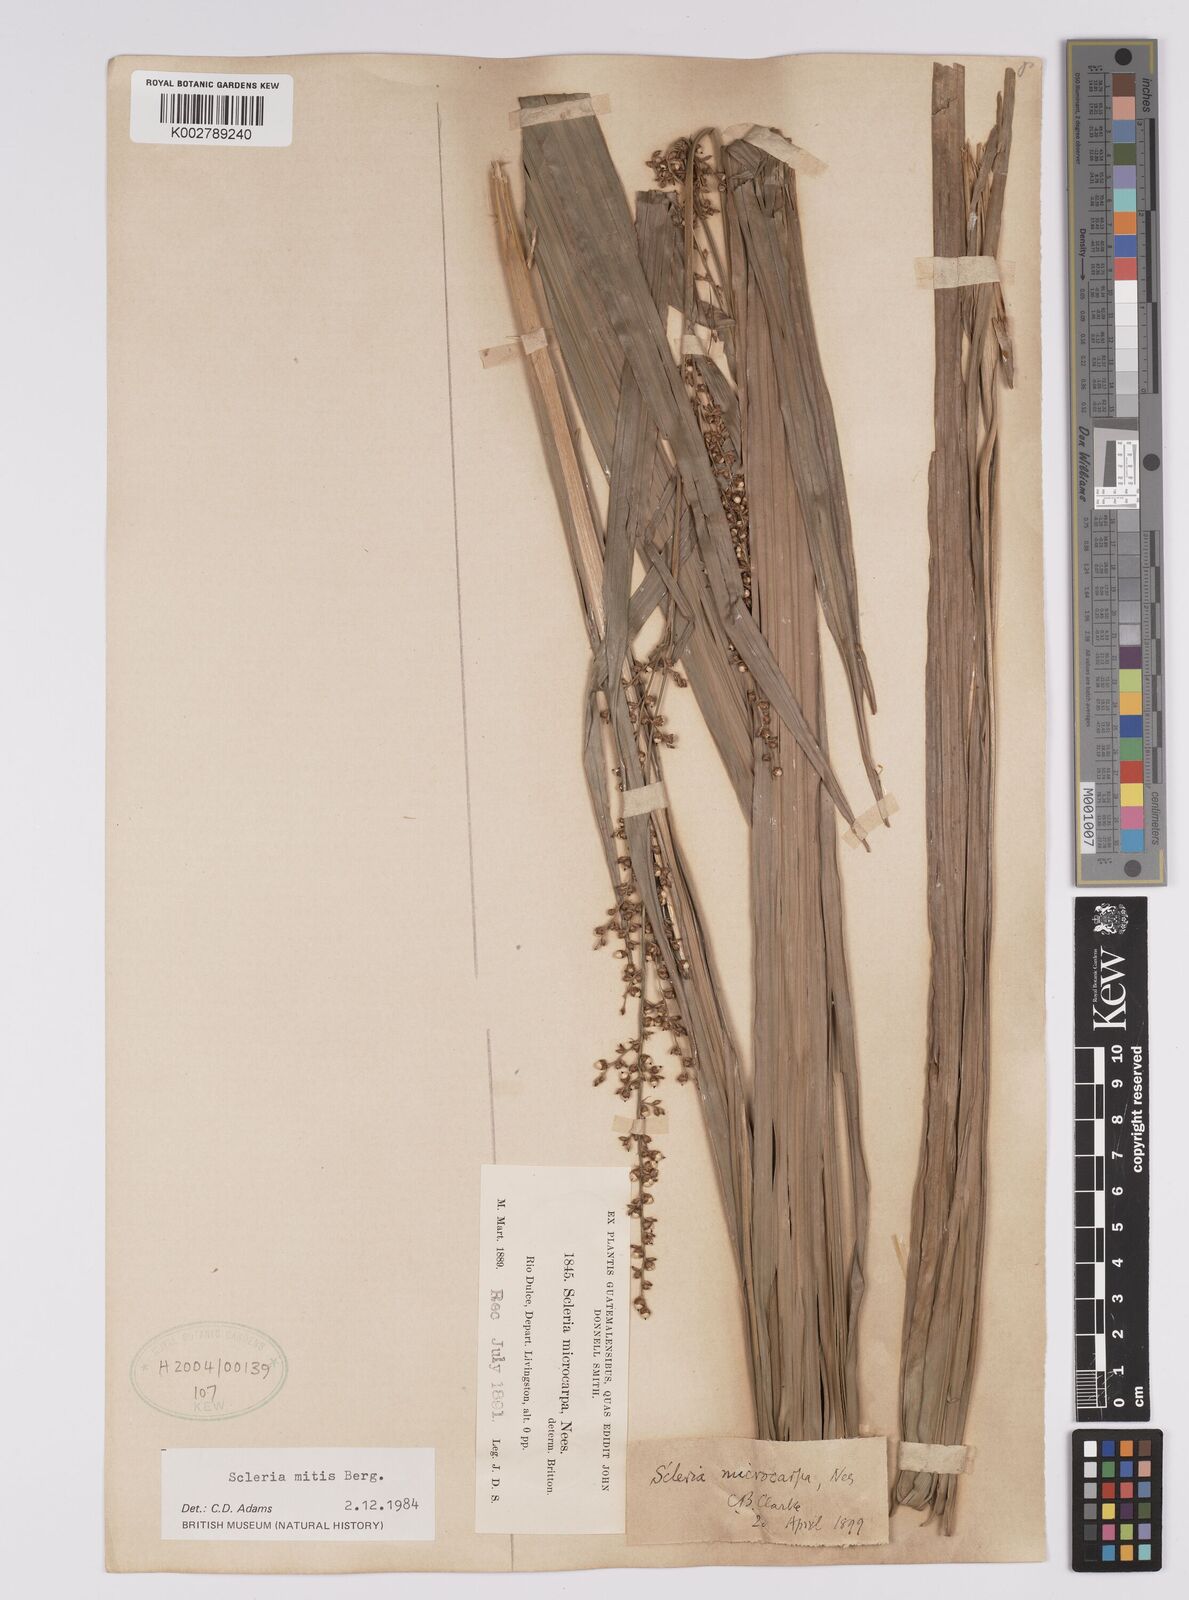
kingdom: Plantae
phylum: Tracheophyta
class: Liliopsida
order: Poales
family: Cyperaceae
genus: Scleria
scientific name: Scleria mitis
